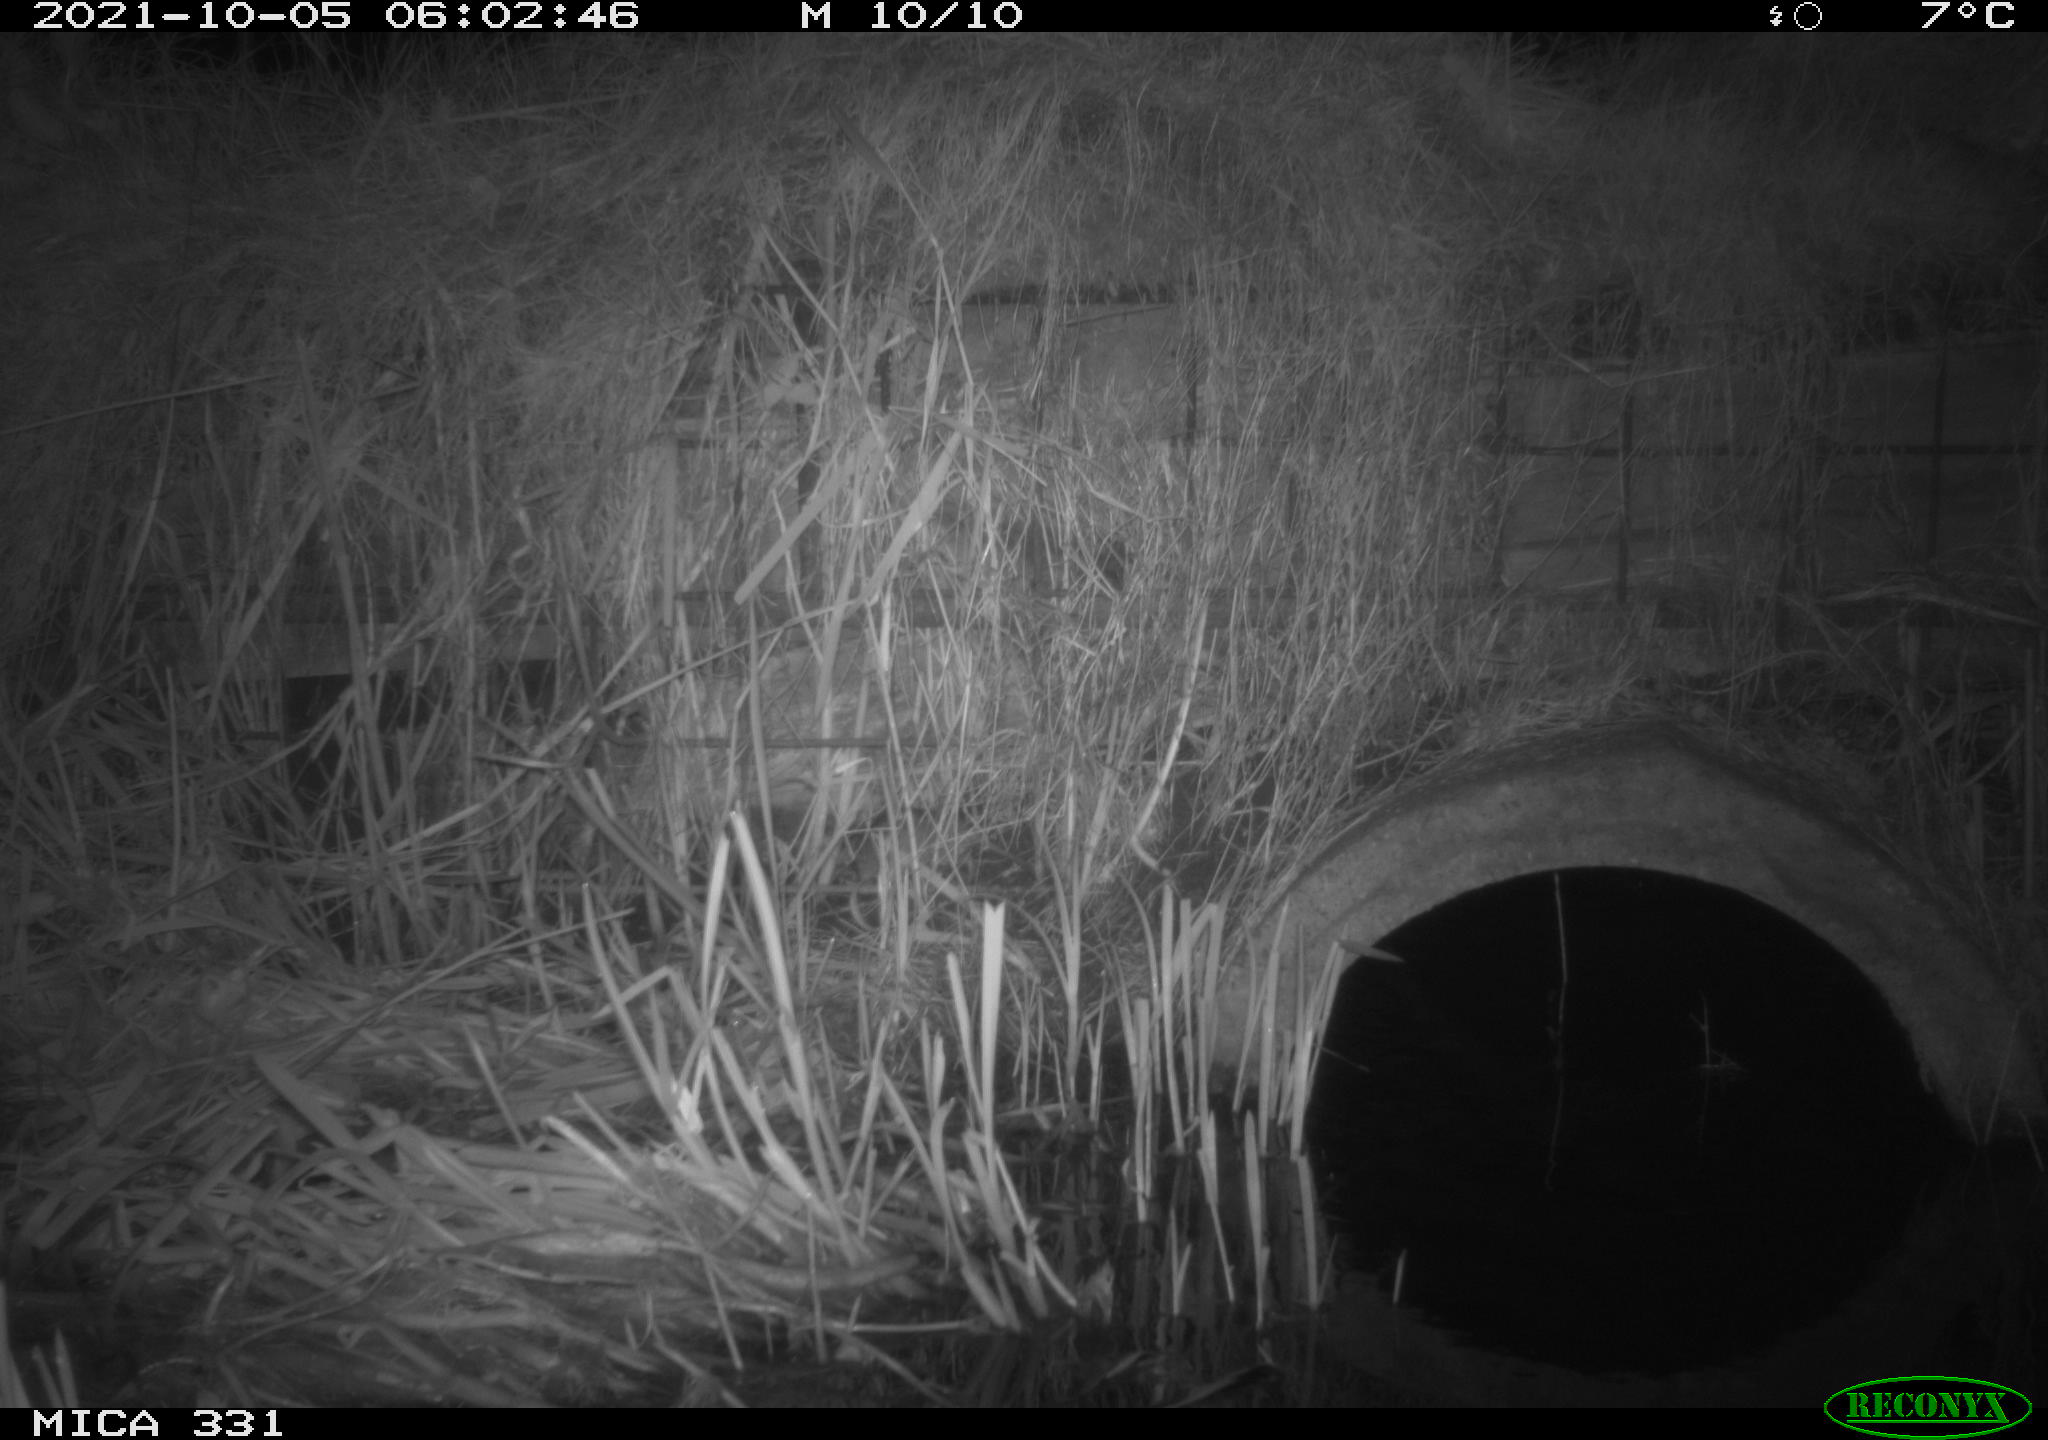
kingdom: Animalia
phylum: Chordata
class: Mammalia
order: Rodentia
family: Muridae
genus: Rattus
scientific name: Rattus norvegicus
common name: Brown rat
